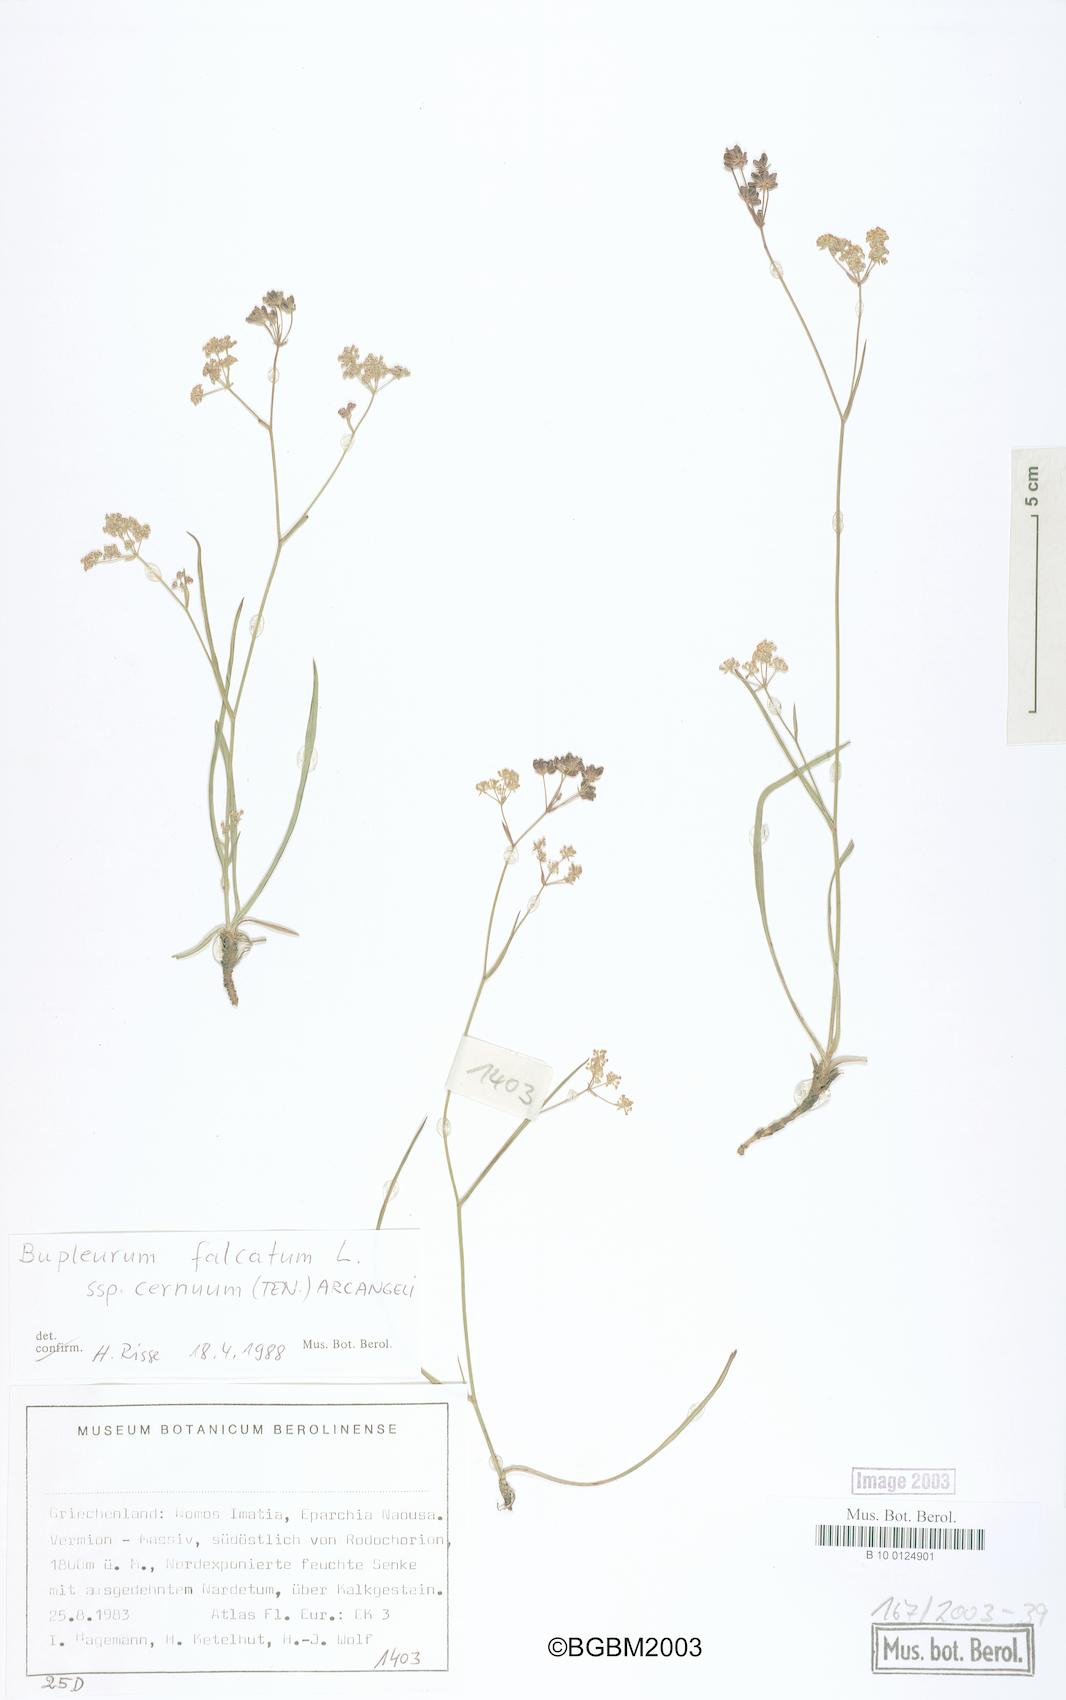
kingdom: Plantae
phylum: Tracheophyta
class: Magnoliopsida
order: Apiales
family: Apiaceae
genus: Bupleurum
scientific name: Bupleurum exaltatum
